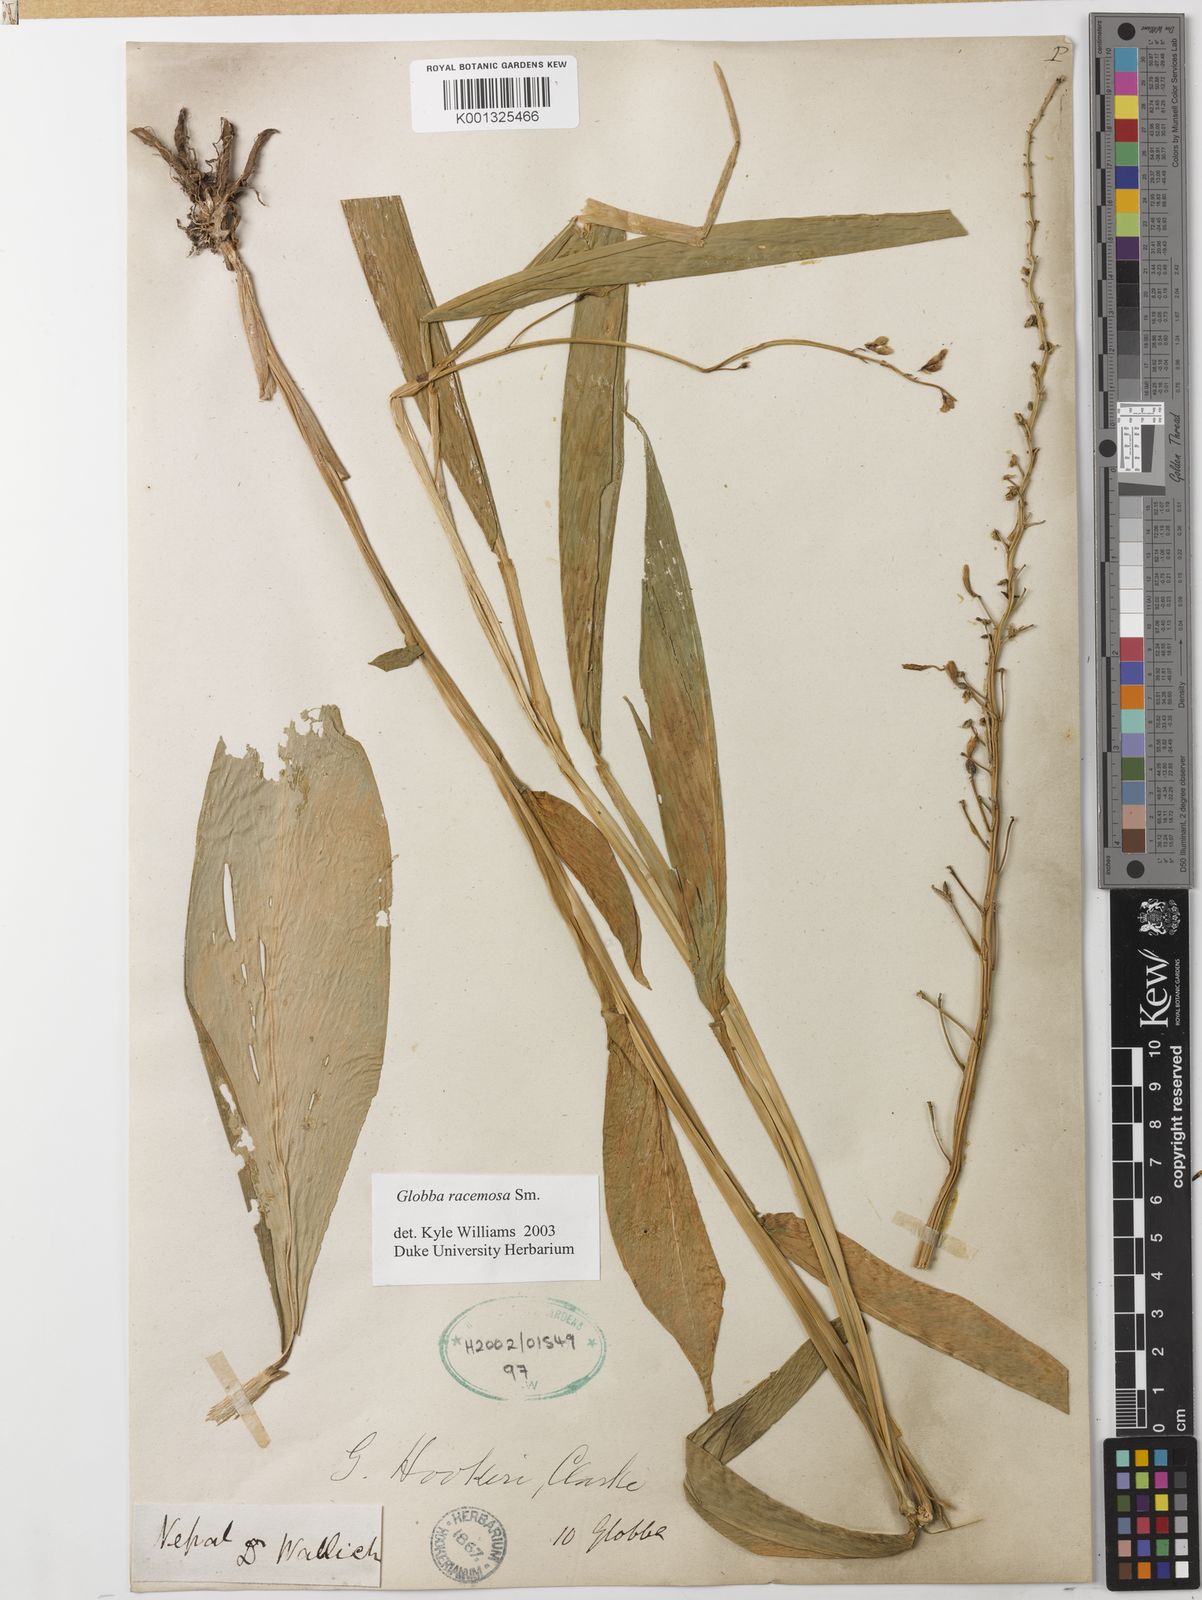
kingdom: Plantae
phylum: Tracheophyta
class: Liliopsida
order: Zingiberales
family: Zingiberaceae
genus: Globba
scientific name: Globba racemosa
